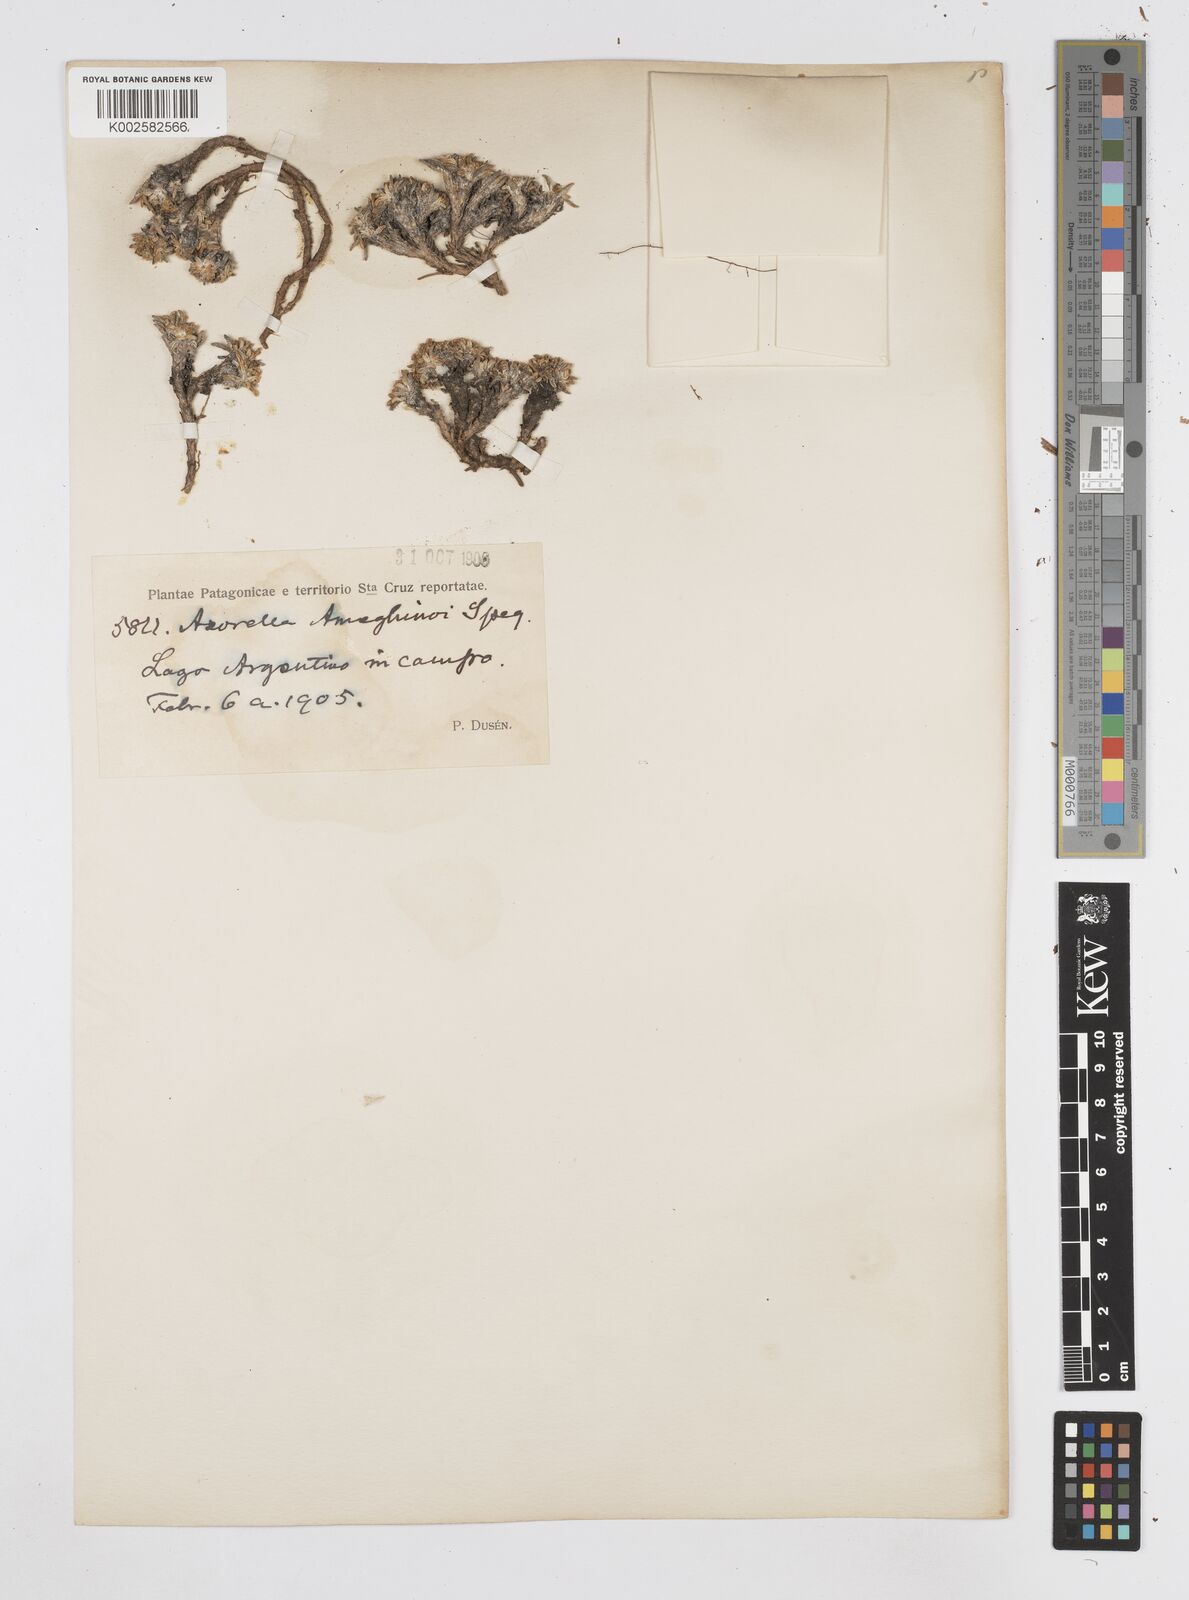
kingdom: Plantae
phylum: Tracheophyta
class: Magnoliopsida
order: Apiales
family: Apiaceae
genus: Azorella
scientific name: Azorella ameghinoi
